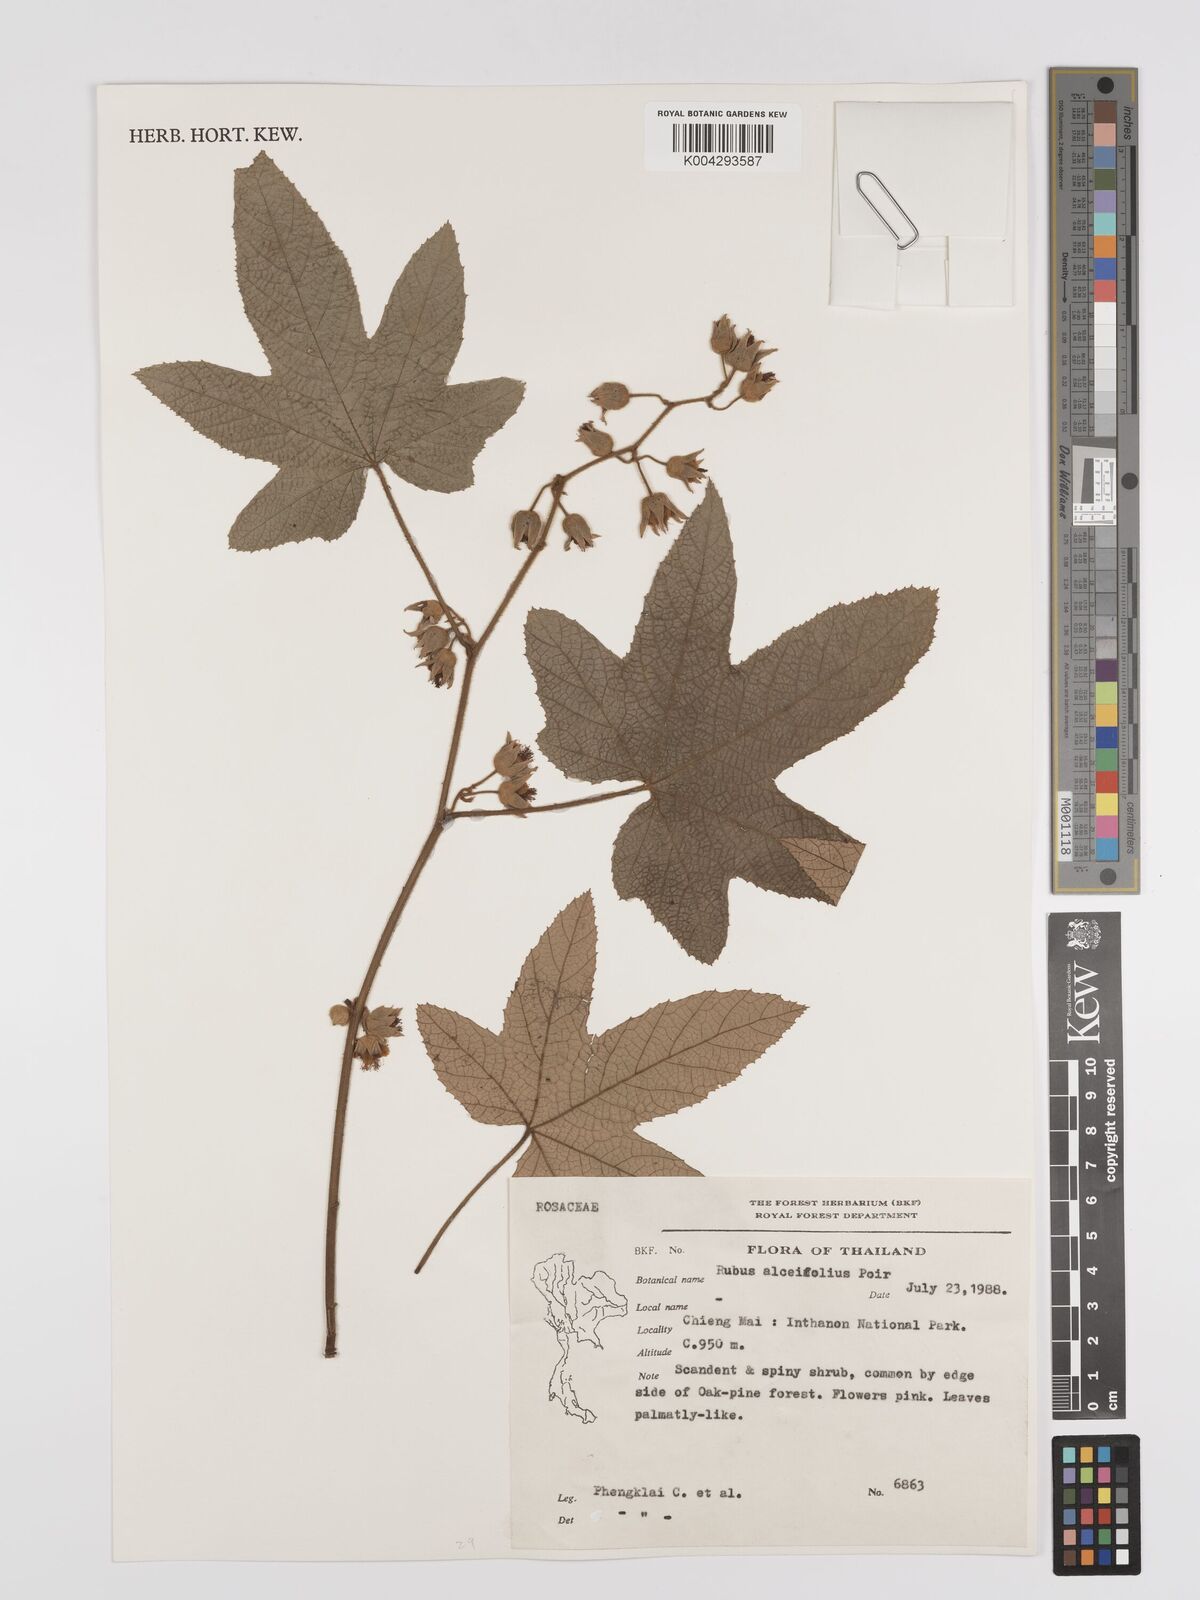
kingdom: Plantae
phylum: Tracheophyta
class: Magnoliopsida
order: Rosales
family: Rosaceae
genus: Rubus
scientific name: Rubus alceifolius
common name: Giant bramble
